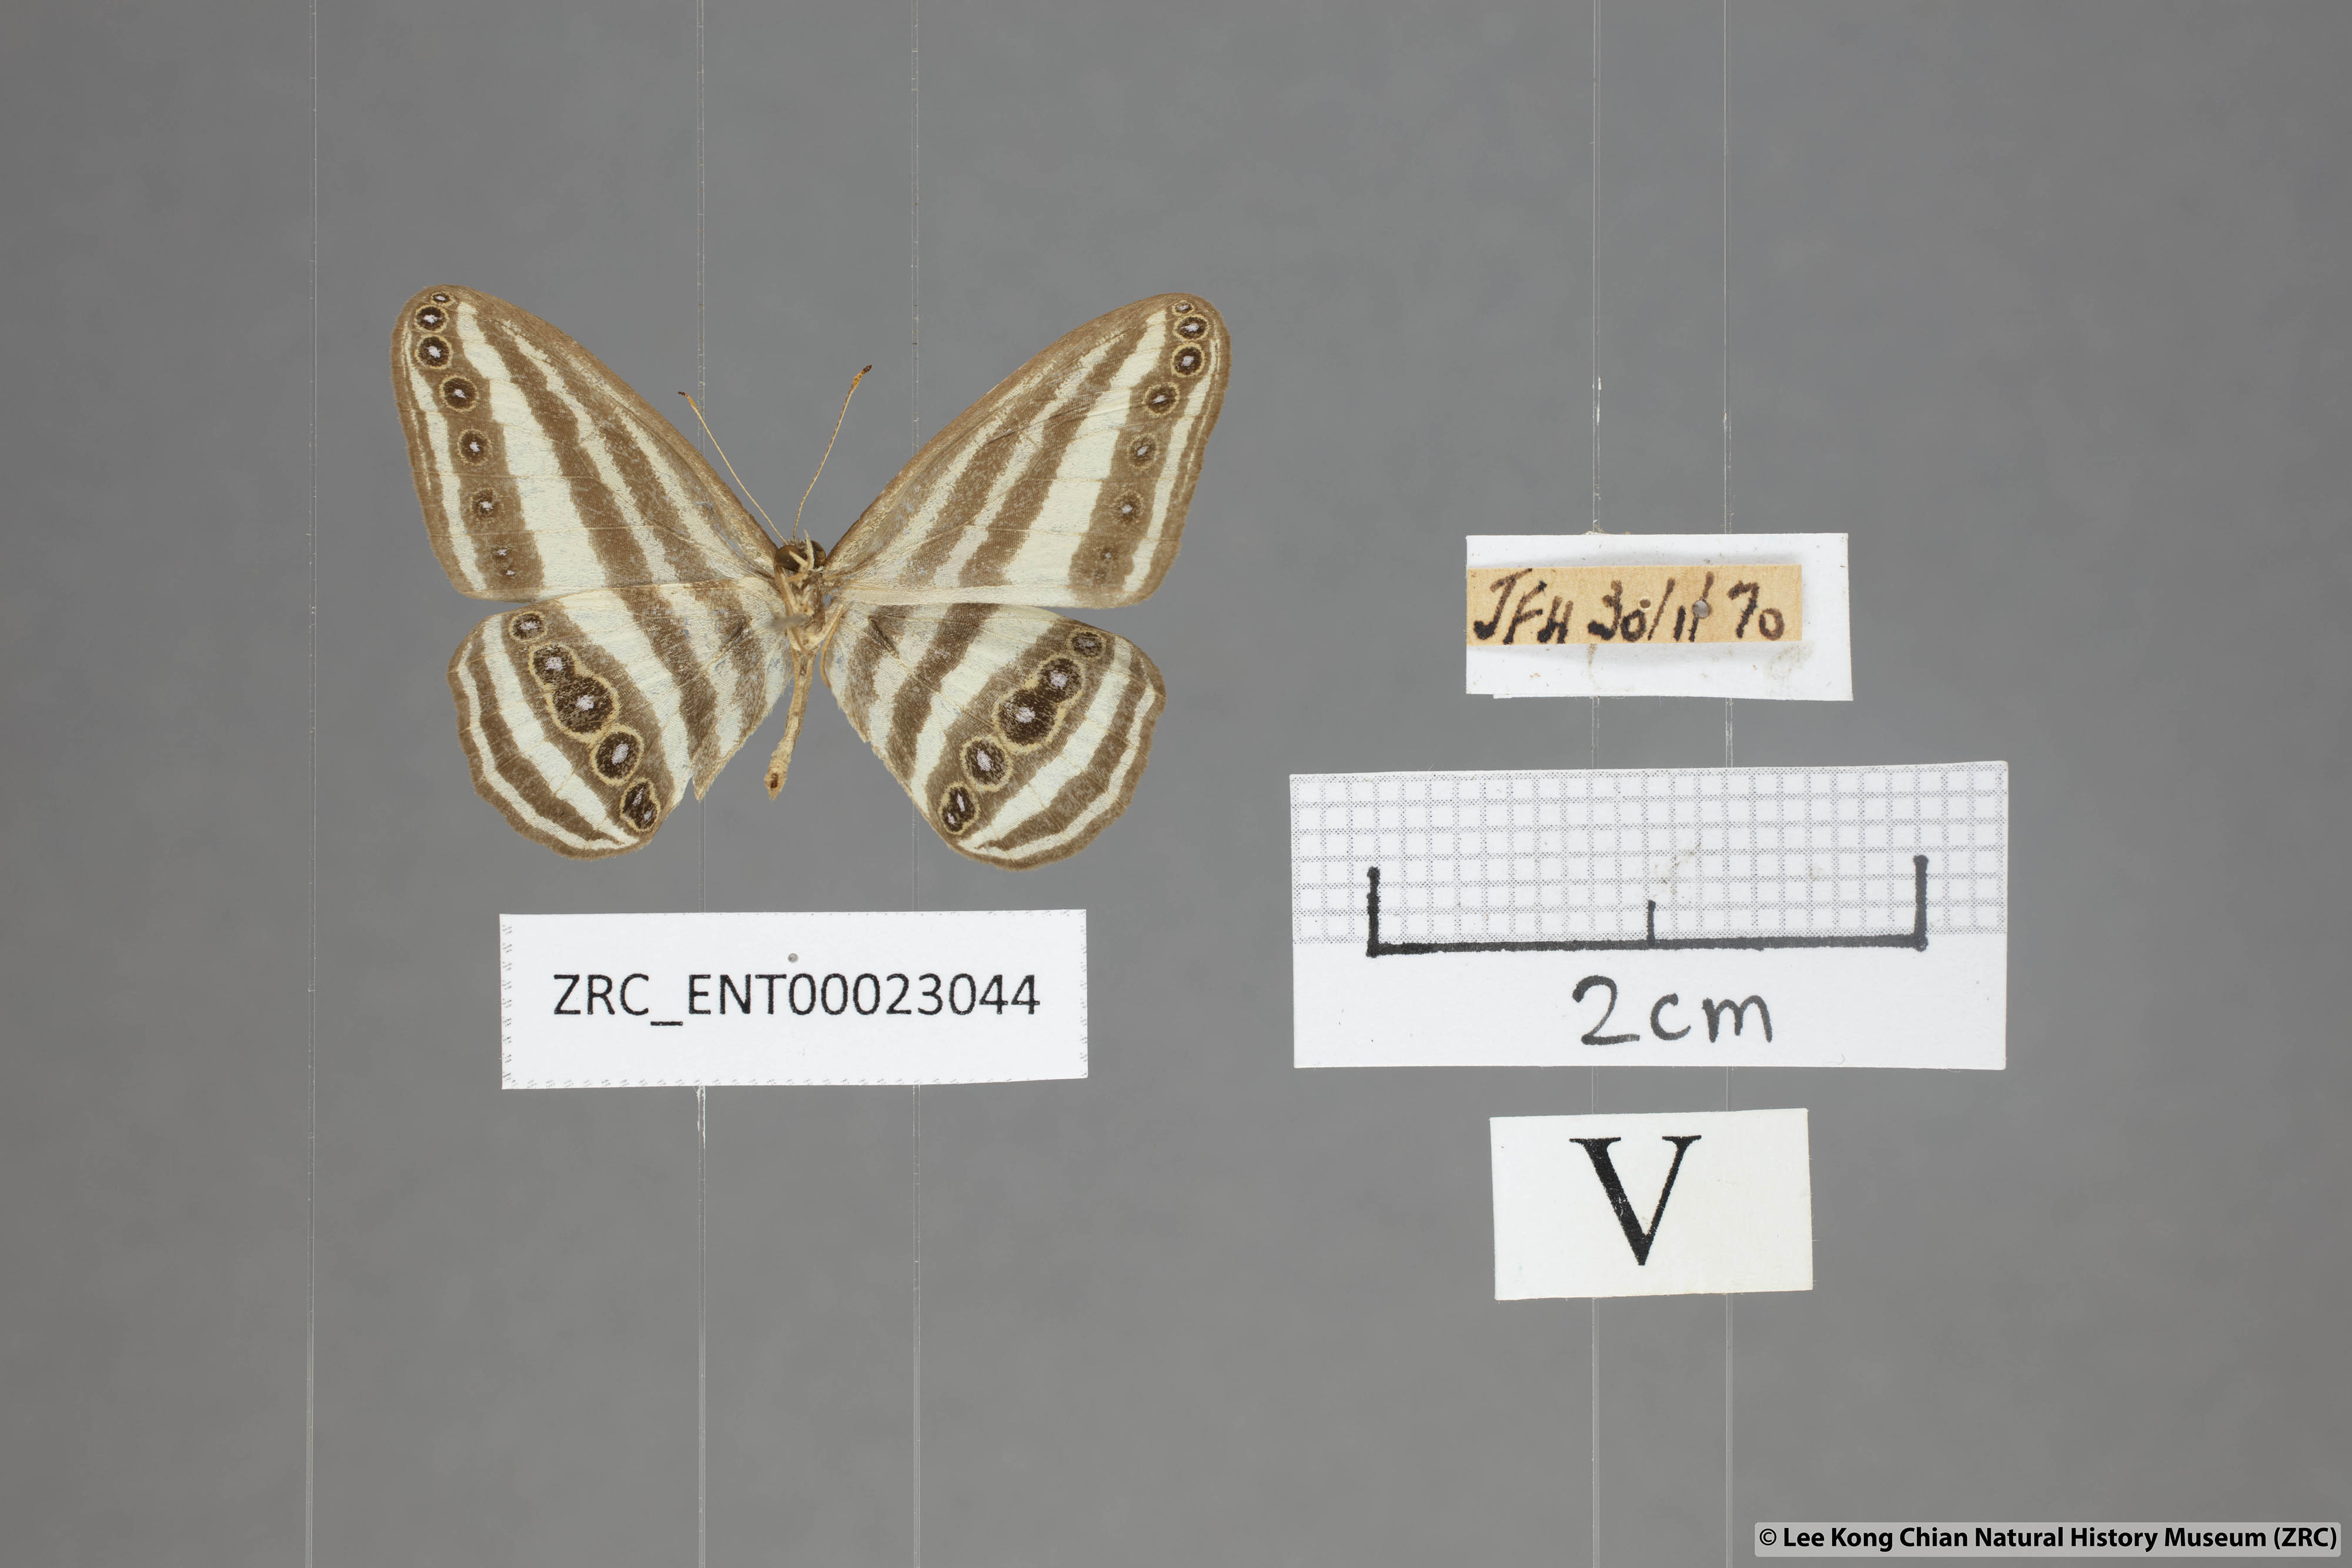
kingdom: Animalia
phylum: Arthropoda
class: Insecta
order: Lepidoptera
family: Nymphalidae
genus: Ragadia
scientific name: Ragadia crisilda
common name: White-striped ringlet
